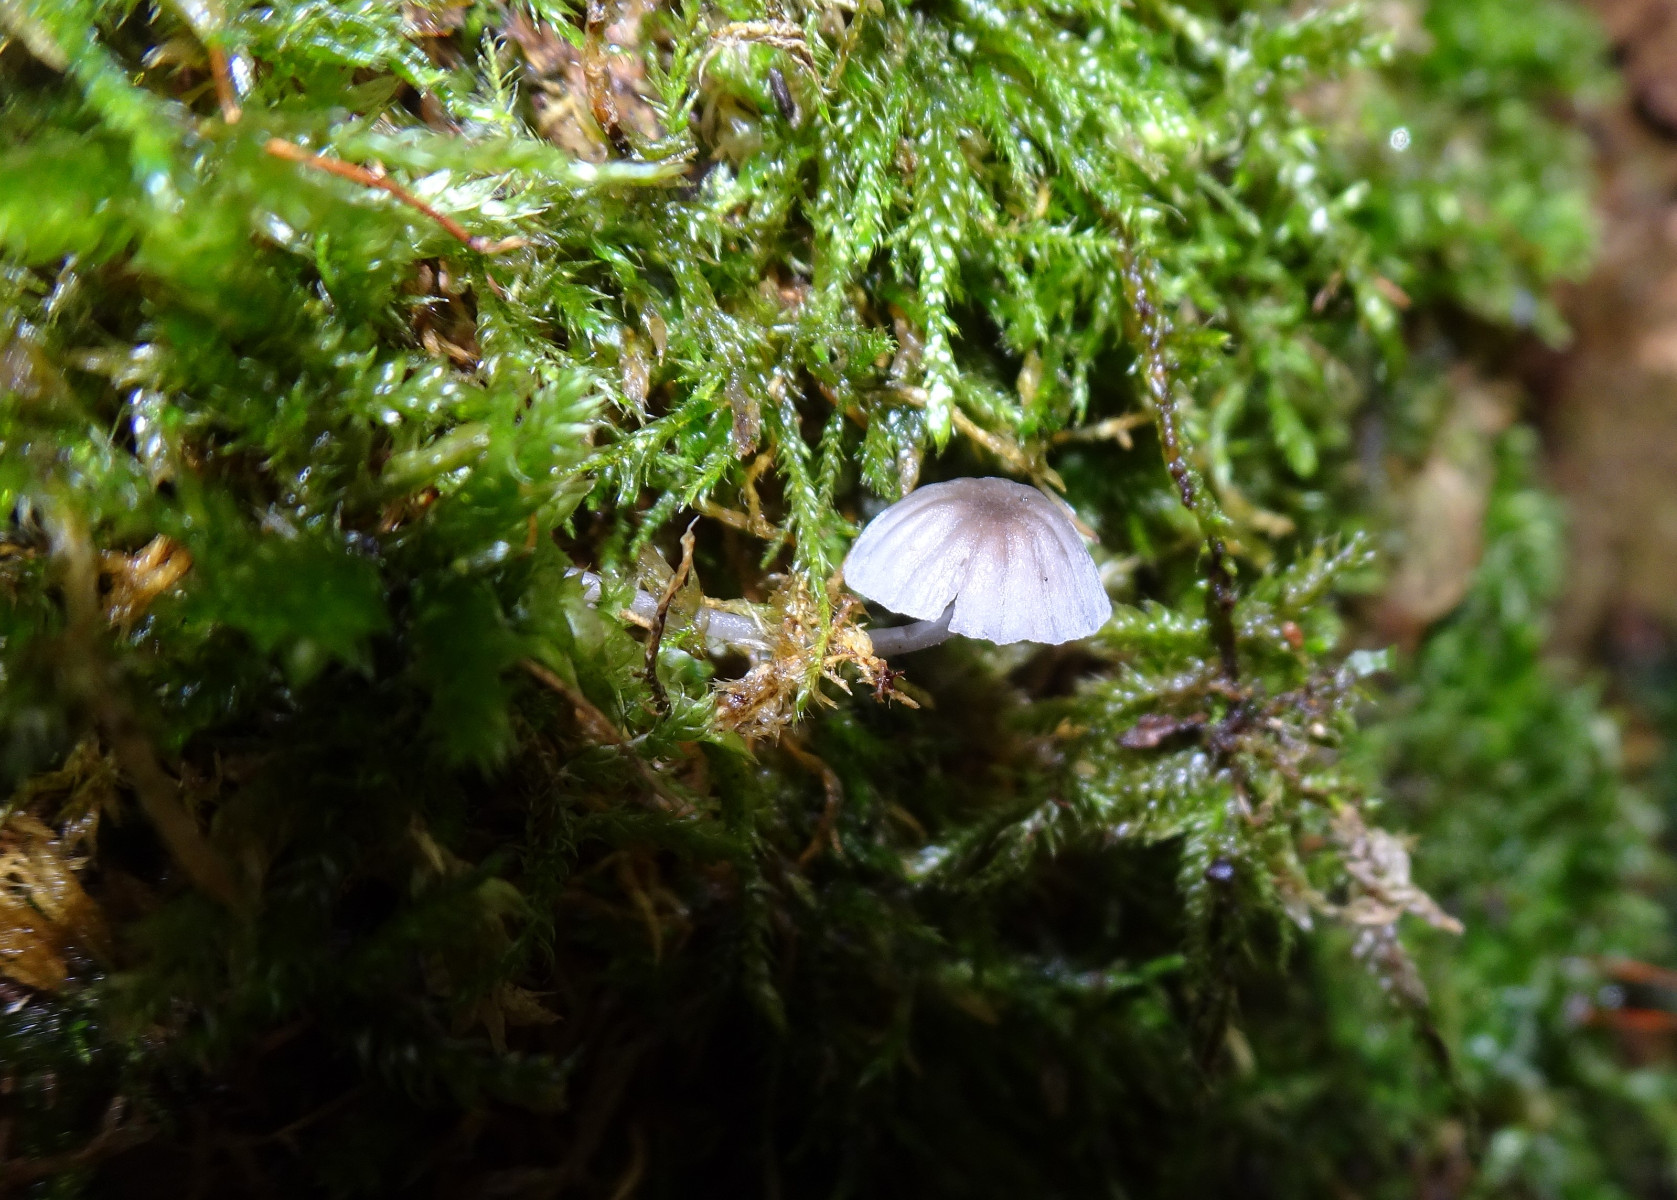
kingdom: Fungi
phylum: Basidiomycota
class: Agaricomycetes
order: Agaricales
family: Mycenaceae
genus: Mycena
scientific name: Mycena pseudocorticola
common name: gråblå bark-huesvamp
